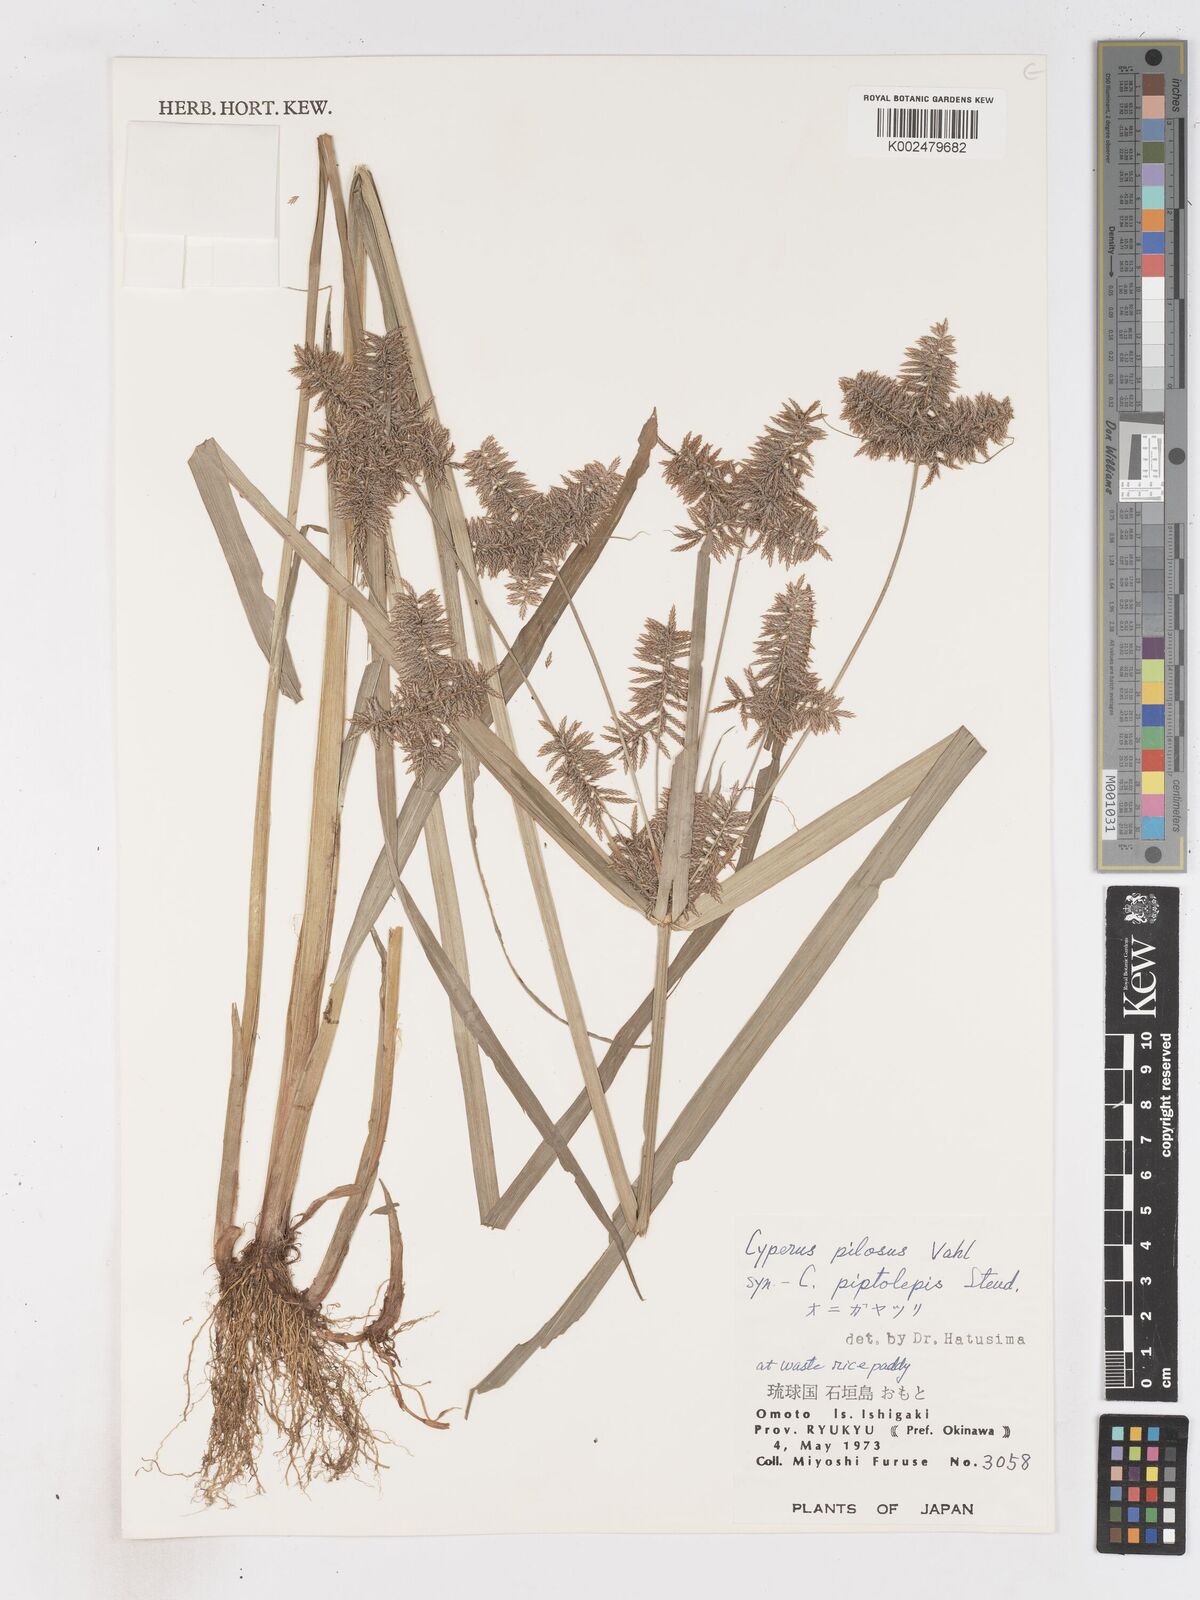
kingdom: Plantae
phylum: Tracheophyta
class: Liliopsida
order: Poales
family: Cyperaceae
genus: Cyperus
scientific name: Cyperus pilosus
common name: Fuzzy flatsedge
